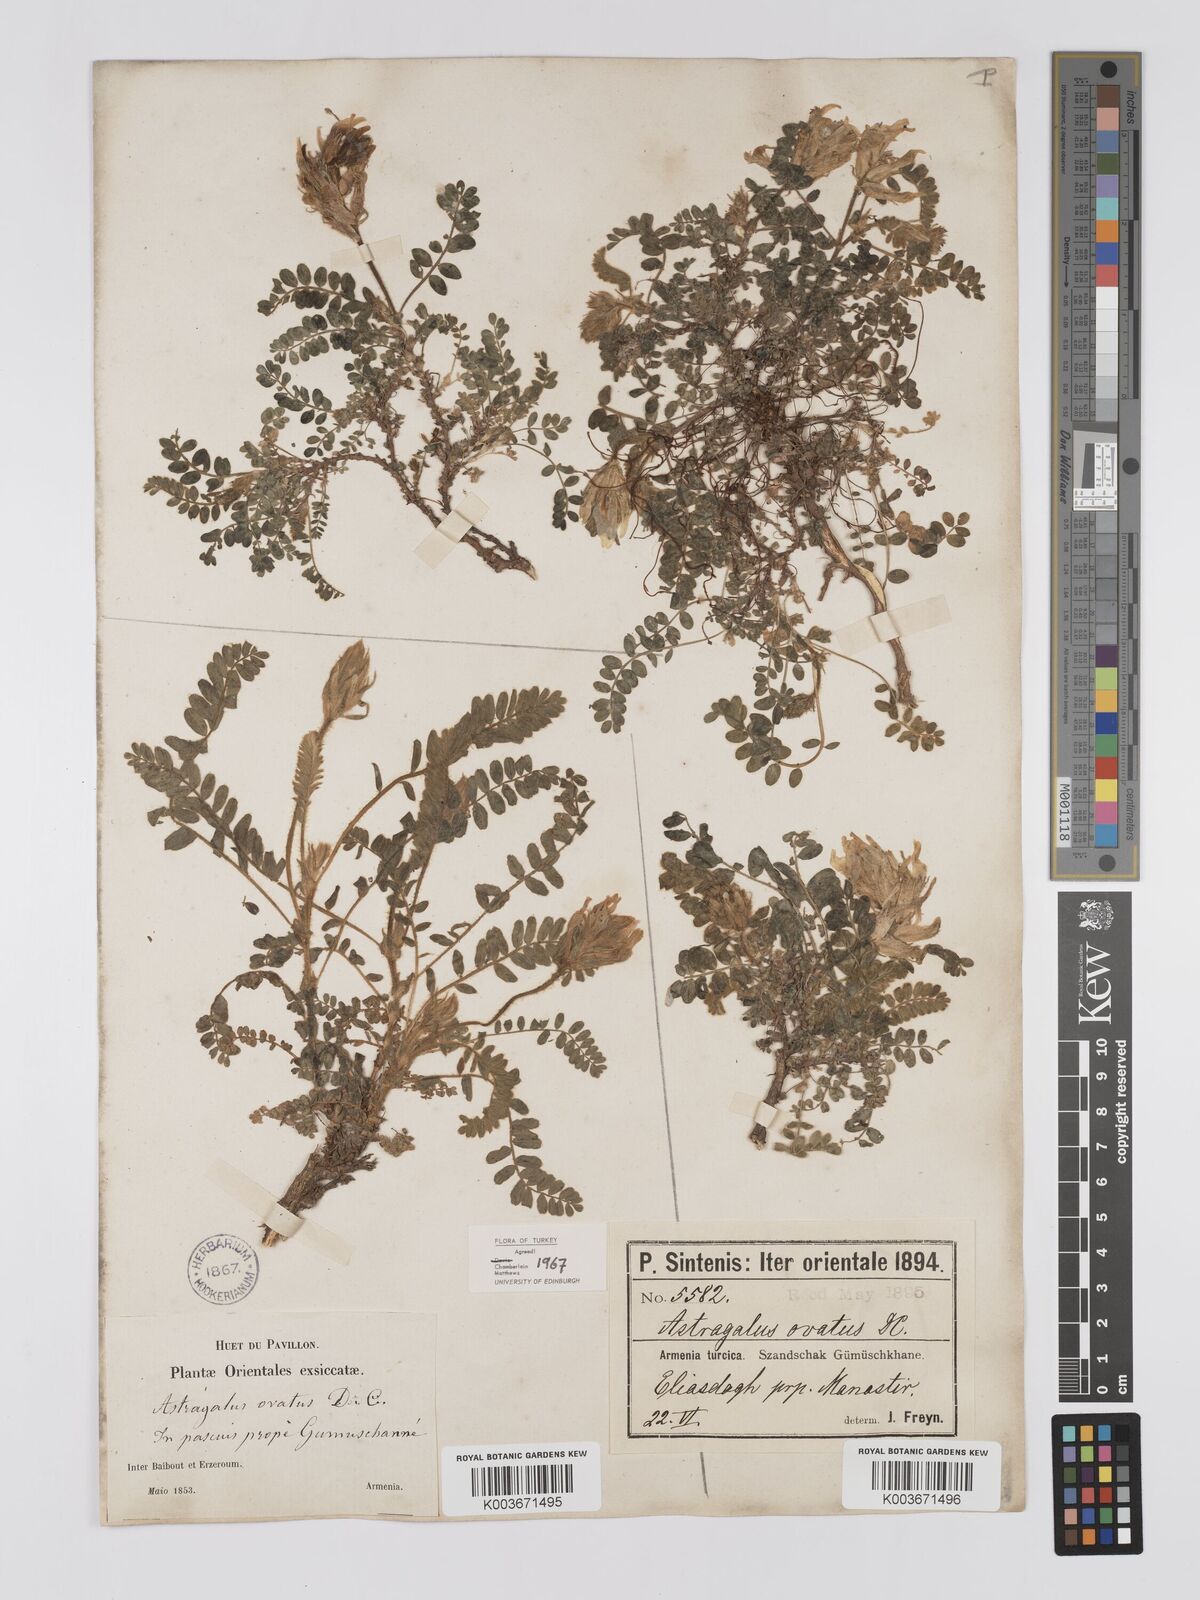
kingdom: Plantae
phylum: Tracheophyta
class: Magnoliopsida
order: Fabales
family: Fabaceae
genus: Astragalus
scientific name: Astragalus ovatus
